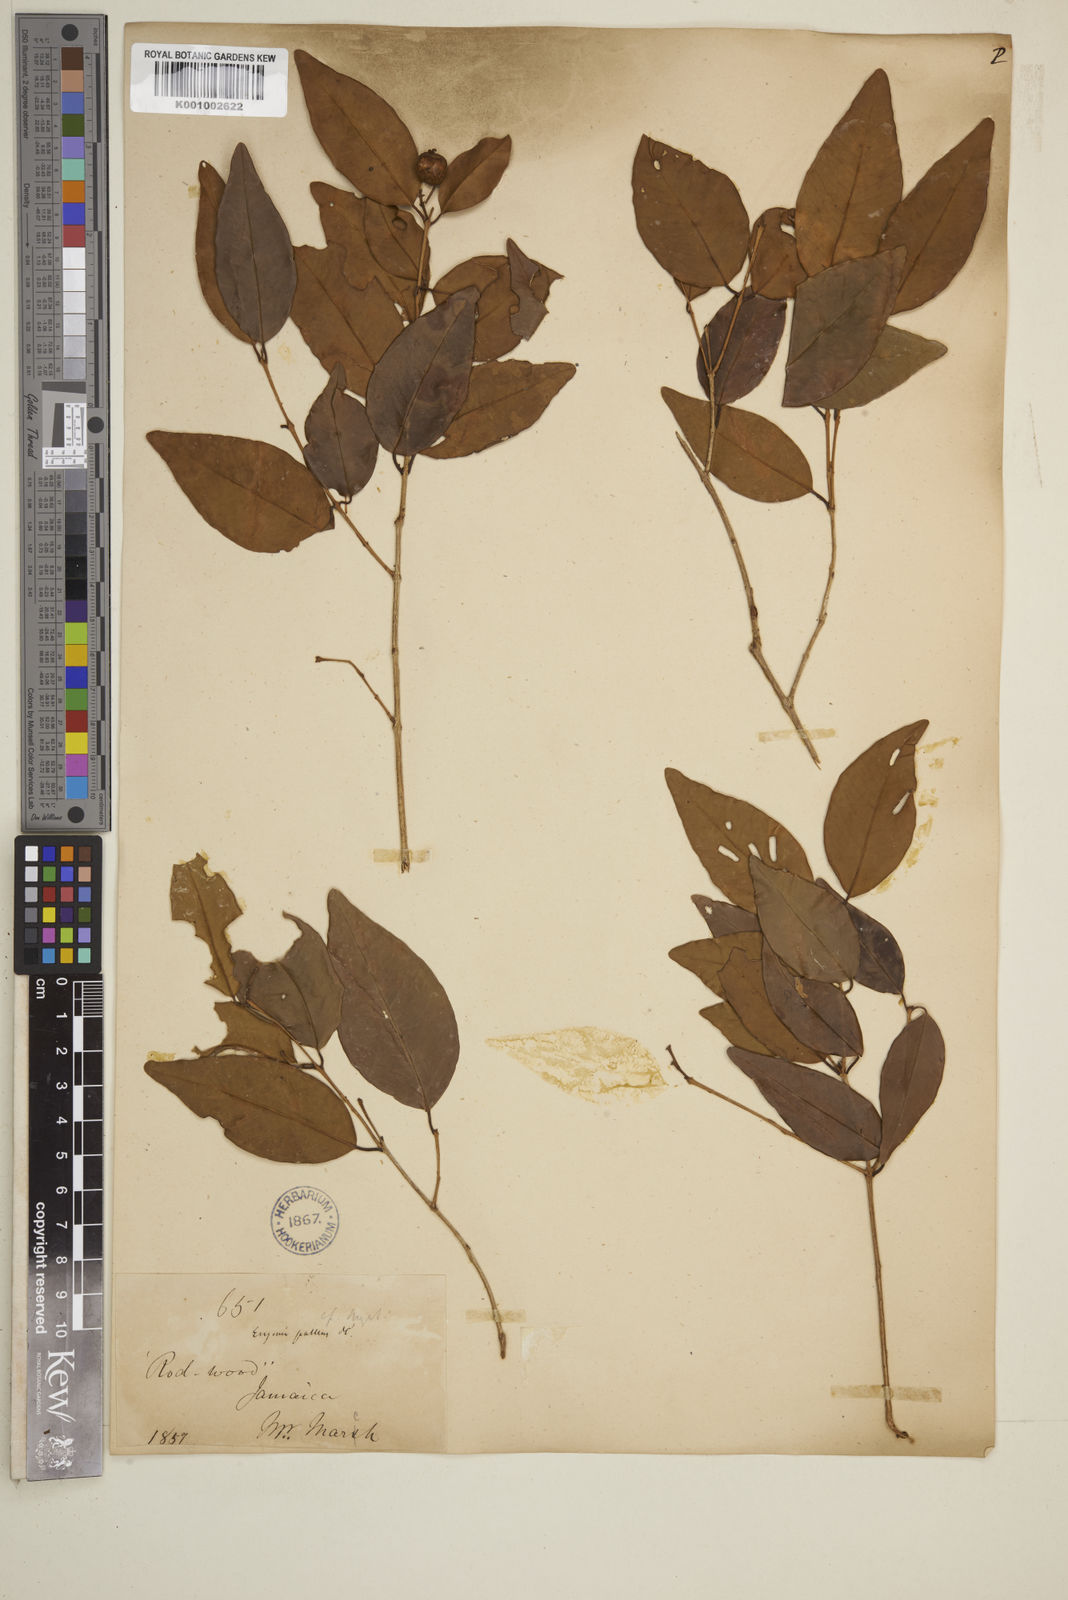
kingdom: Plantae
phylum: Tracheophyta
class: Magnoliopsida
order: Myrtales
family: Myrtaceae
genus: Myrcia
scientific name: Myrcia neopallens
